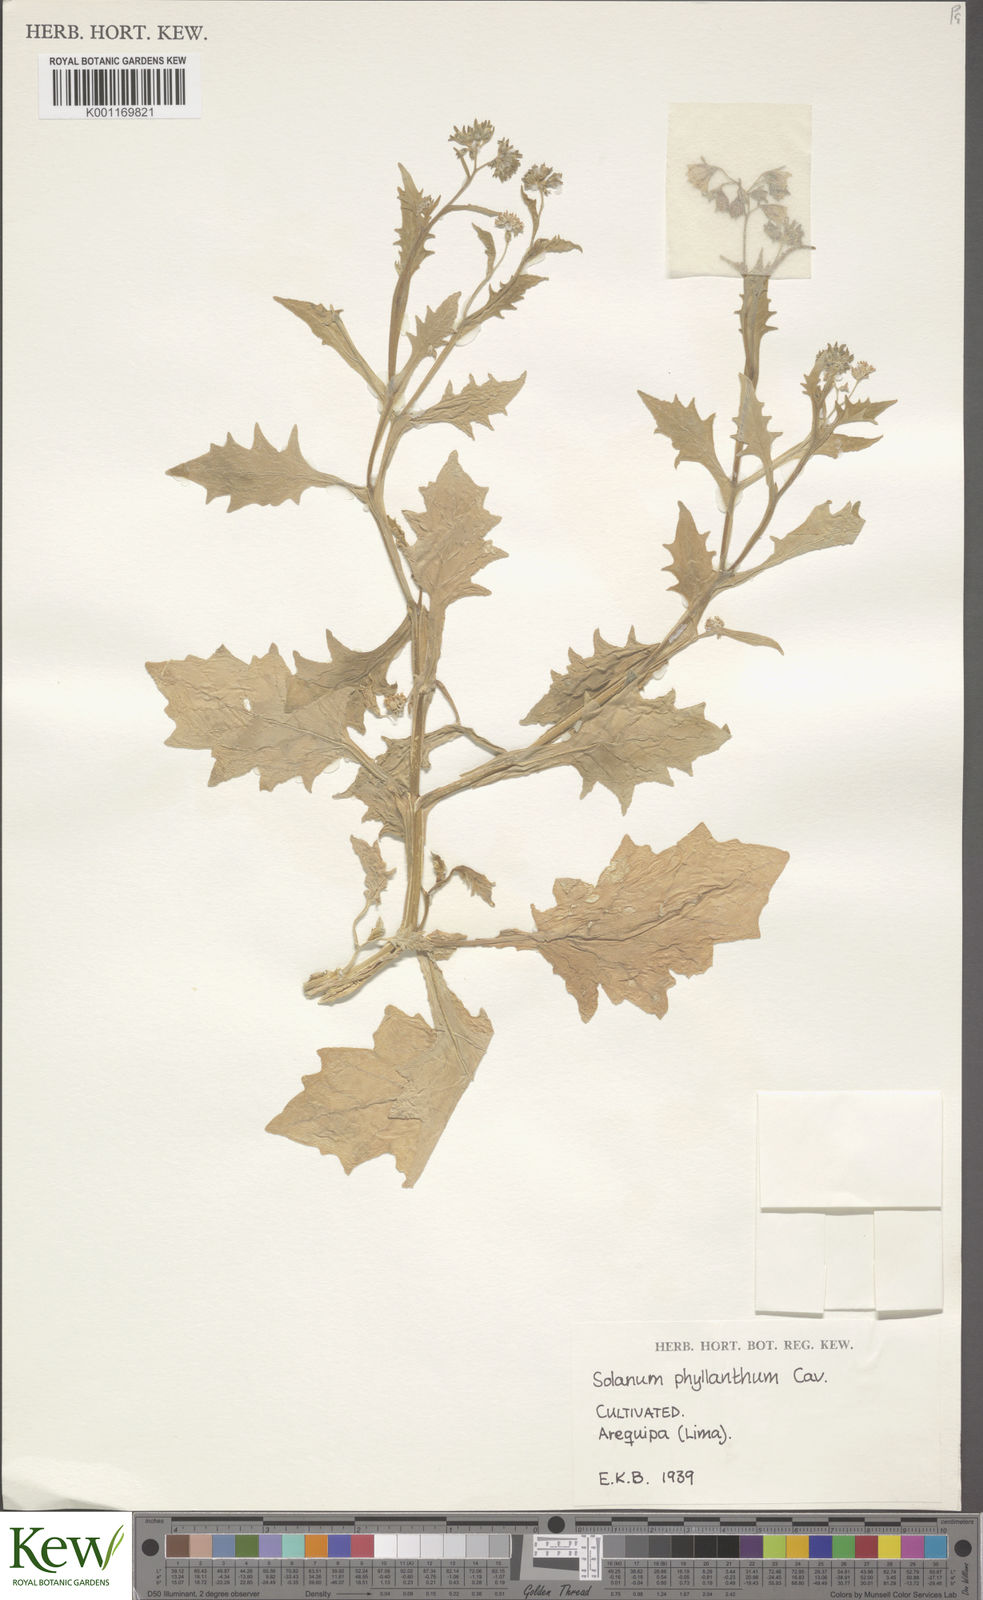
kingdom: Plantae
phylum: Tracheophyta
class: Magnoliopsida
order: Solanales
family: Solanaceae
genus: Solanum
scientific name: Solanum montanum
